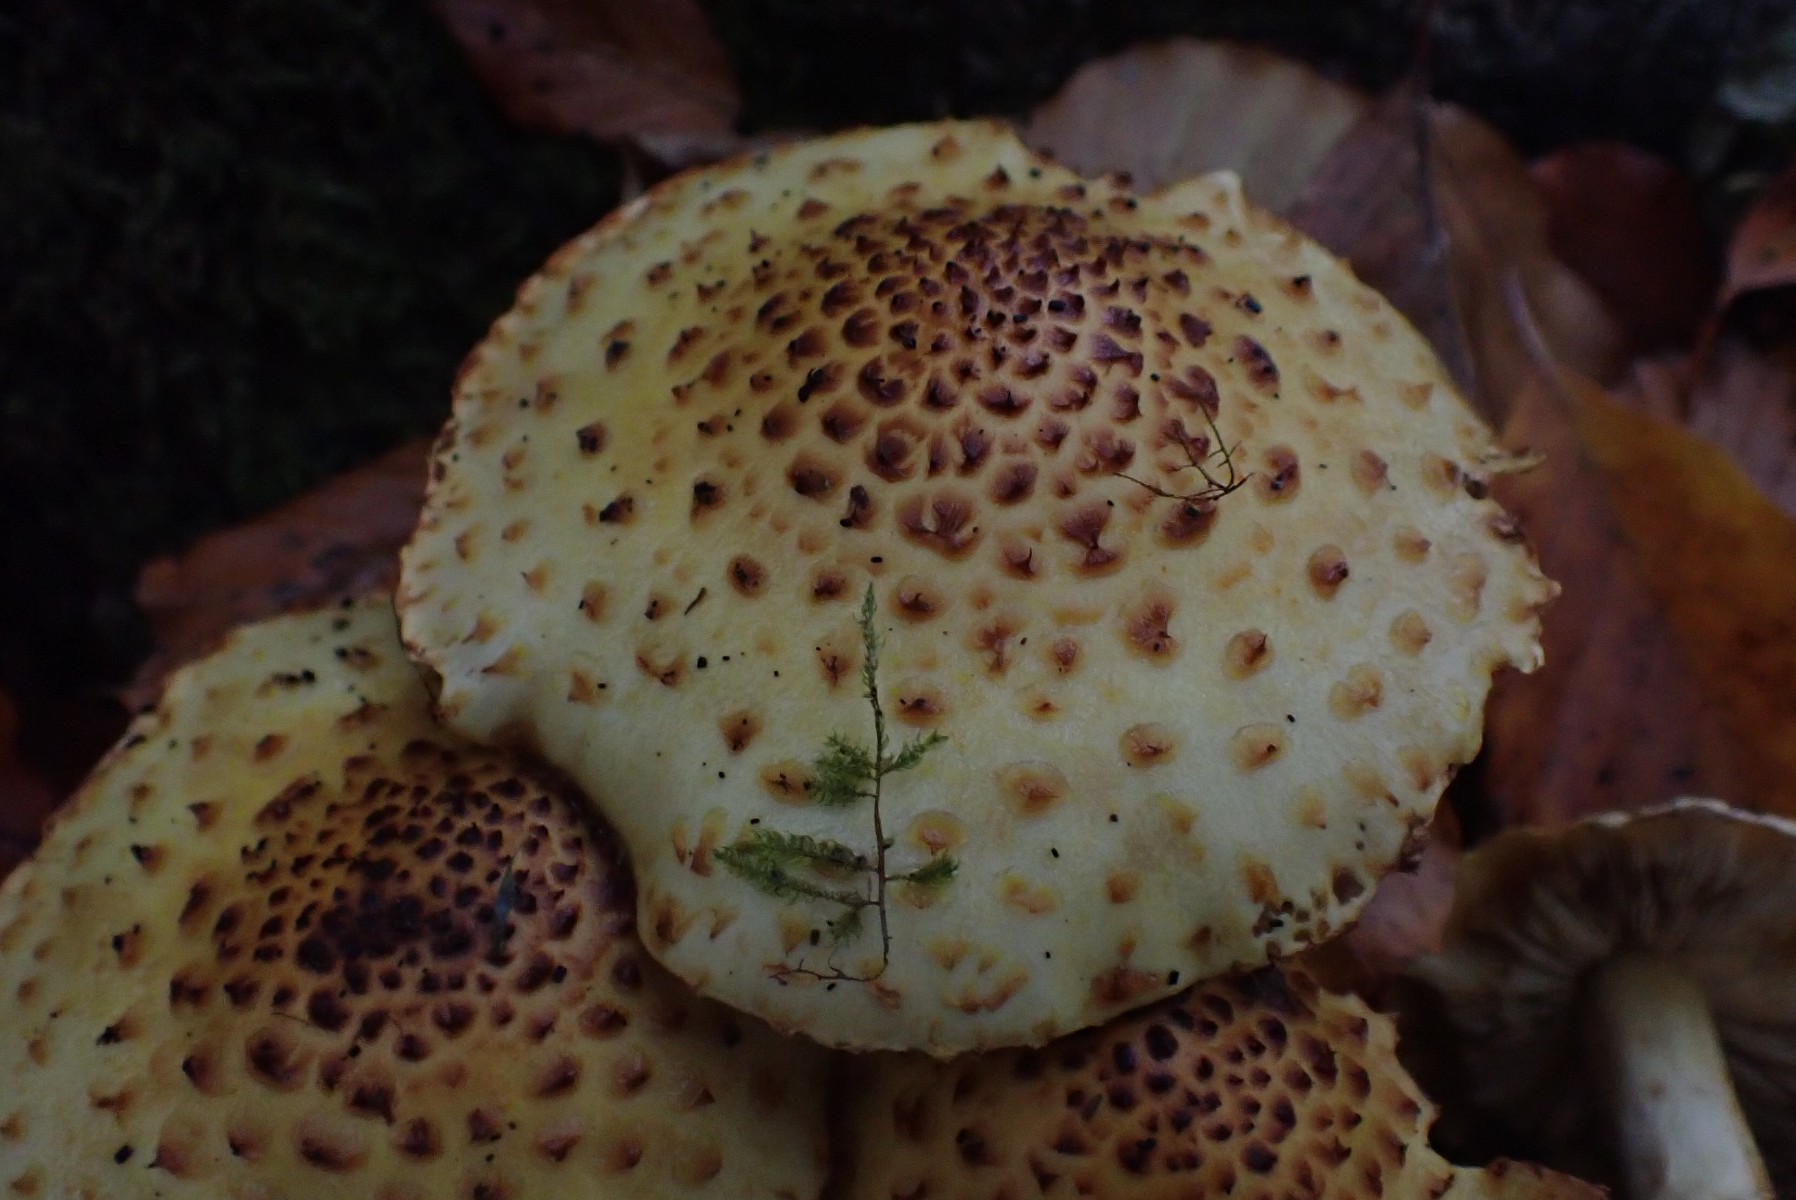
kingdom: Fungi
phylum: Basidiomycota
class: Agaricomycetes
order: Agaricales
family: Strophariaceae
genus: Pholiota
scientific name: Pholiota jahnii
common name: slimet skælhat
